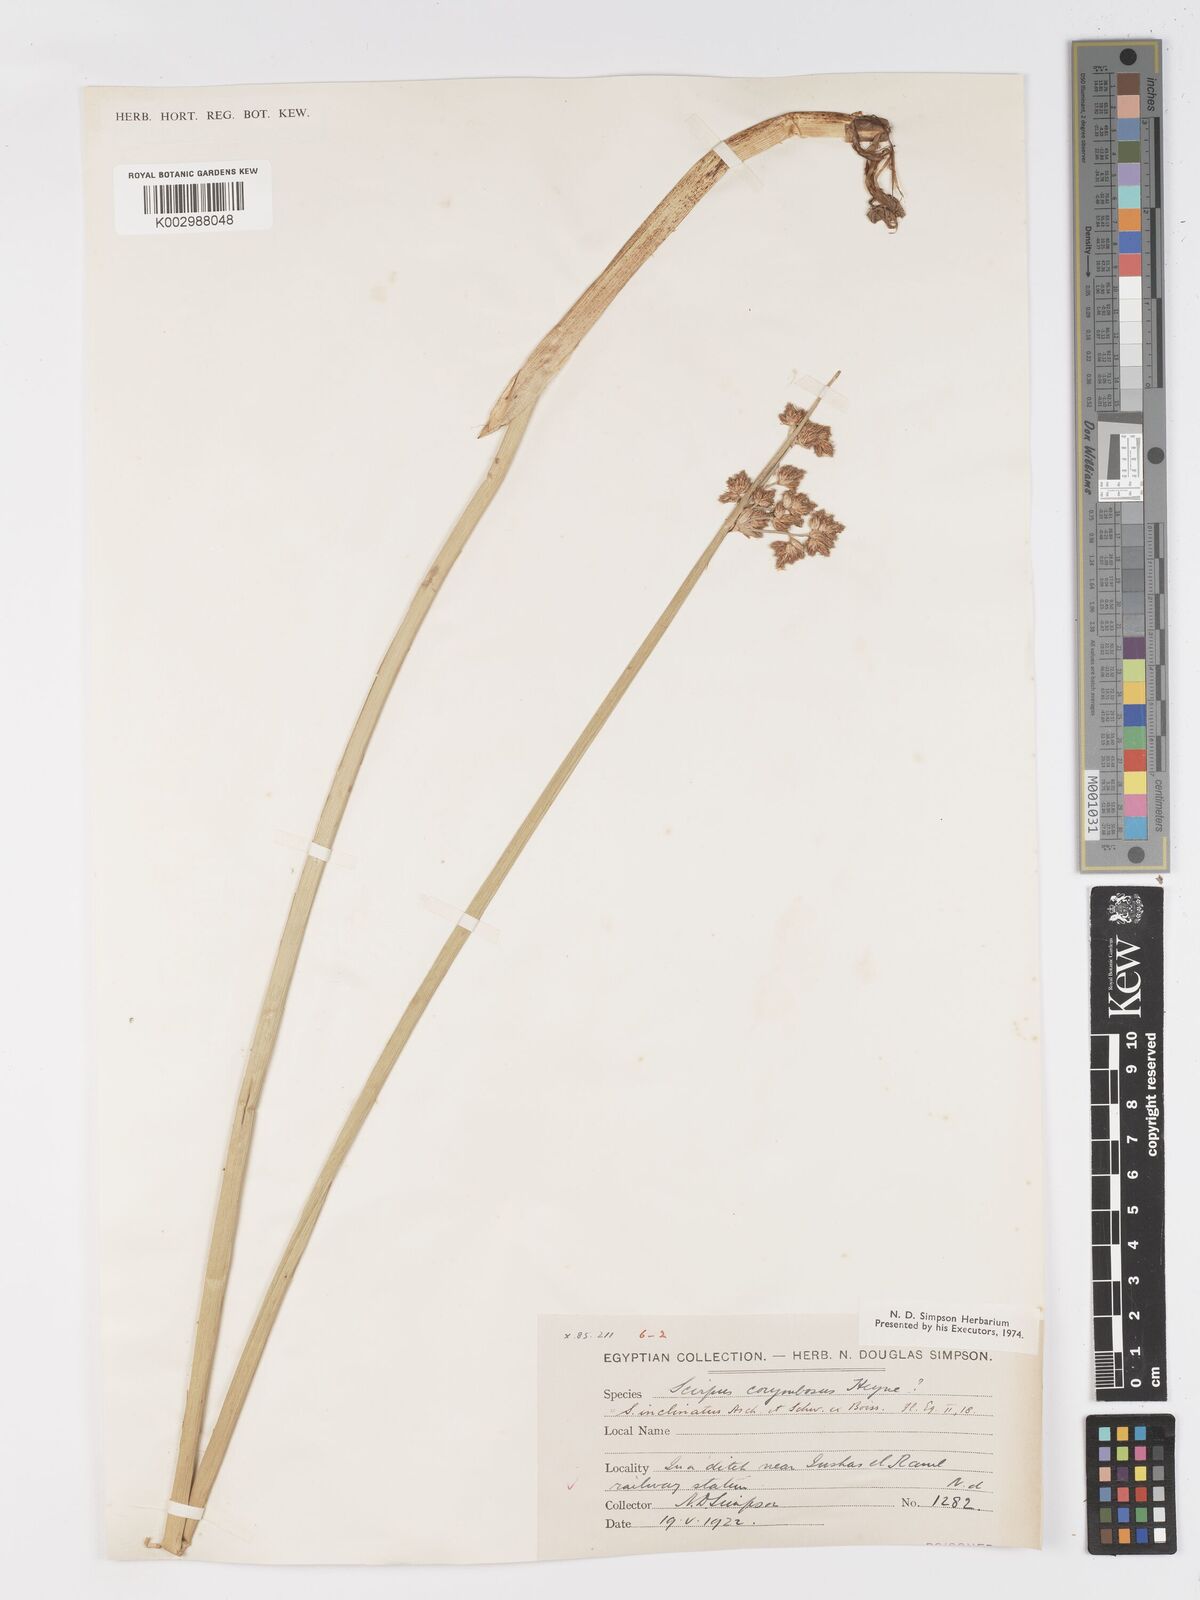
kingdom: Plantae
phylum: Tracheophyta
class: Liliopsida
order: Poales
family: Cyperaceae
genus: Schoenoplectiella
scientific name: Schoenoplectiella corymbosa
